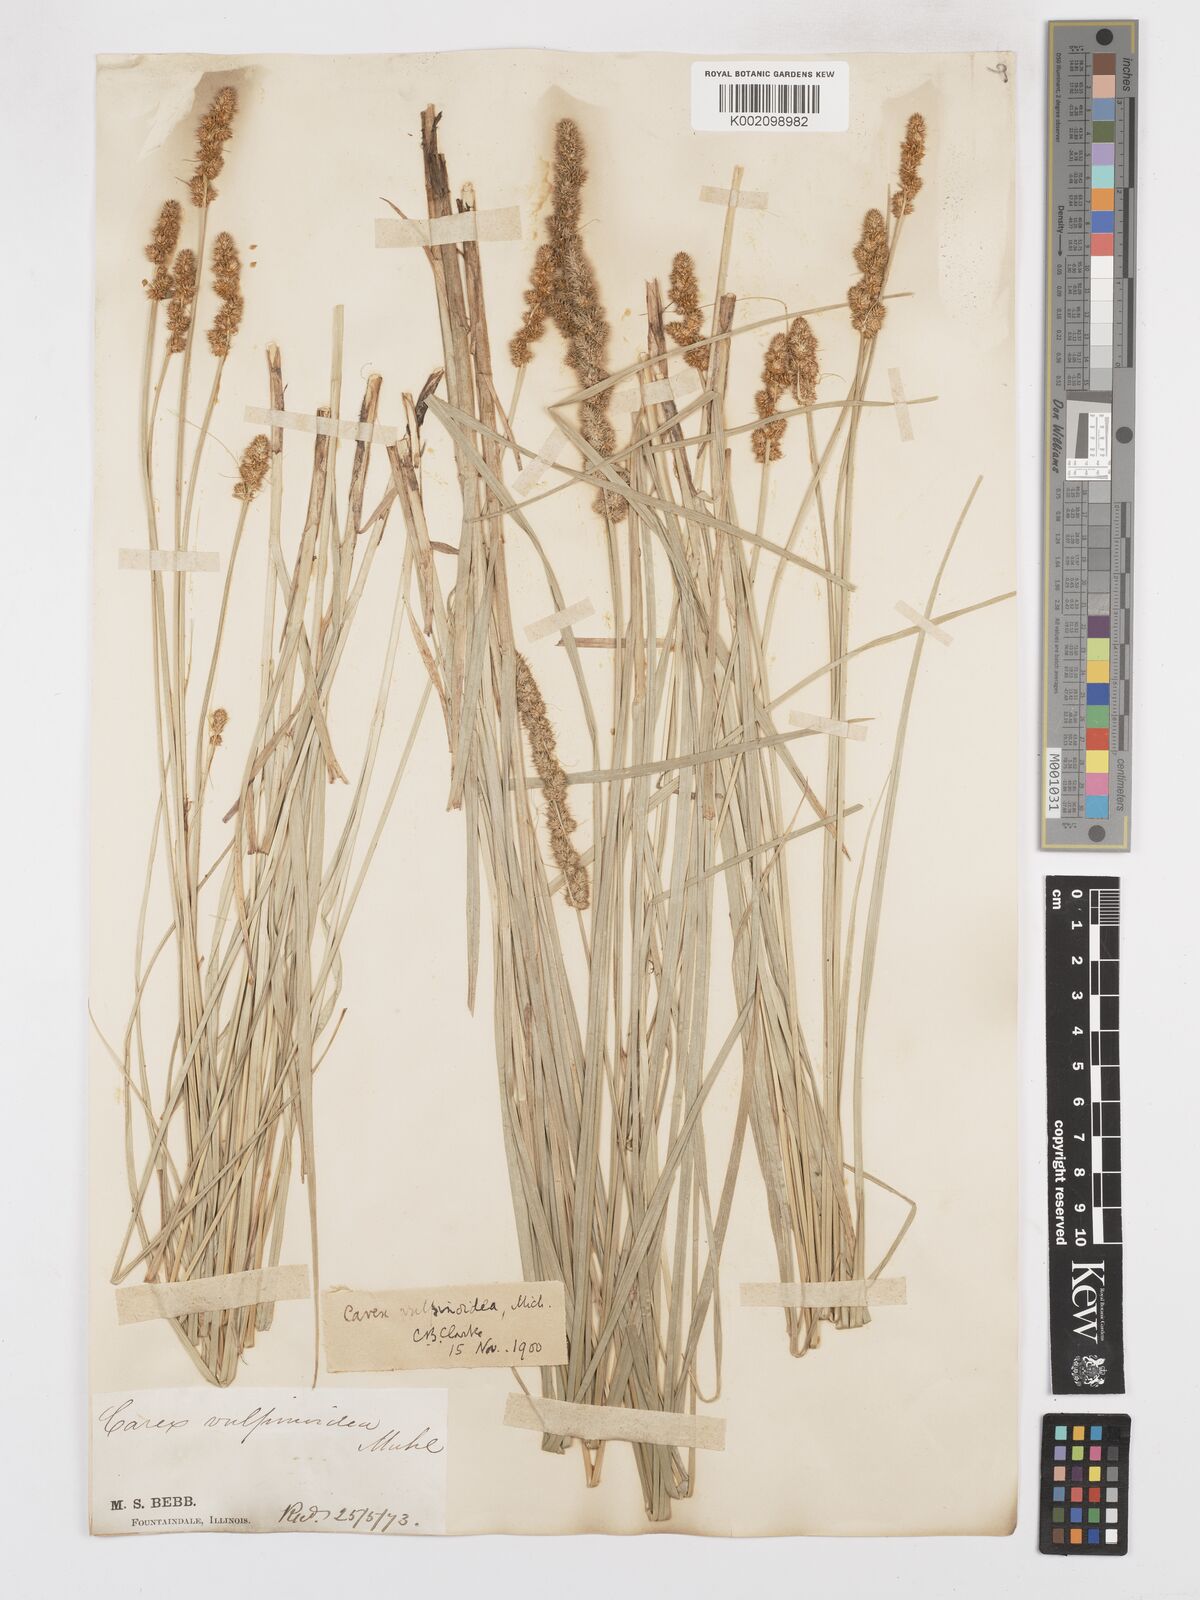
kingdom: Plantae
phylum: Tracheophyta
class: Liliopsida
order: Poales
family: Cyperaceae
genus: Carex
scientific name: Carex vulpinoidea
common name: American fox-sedge
